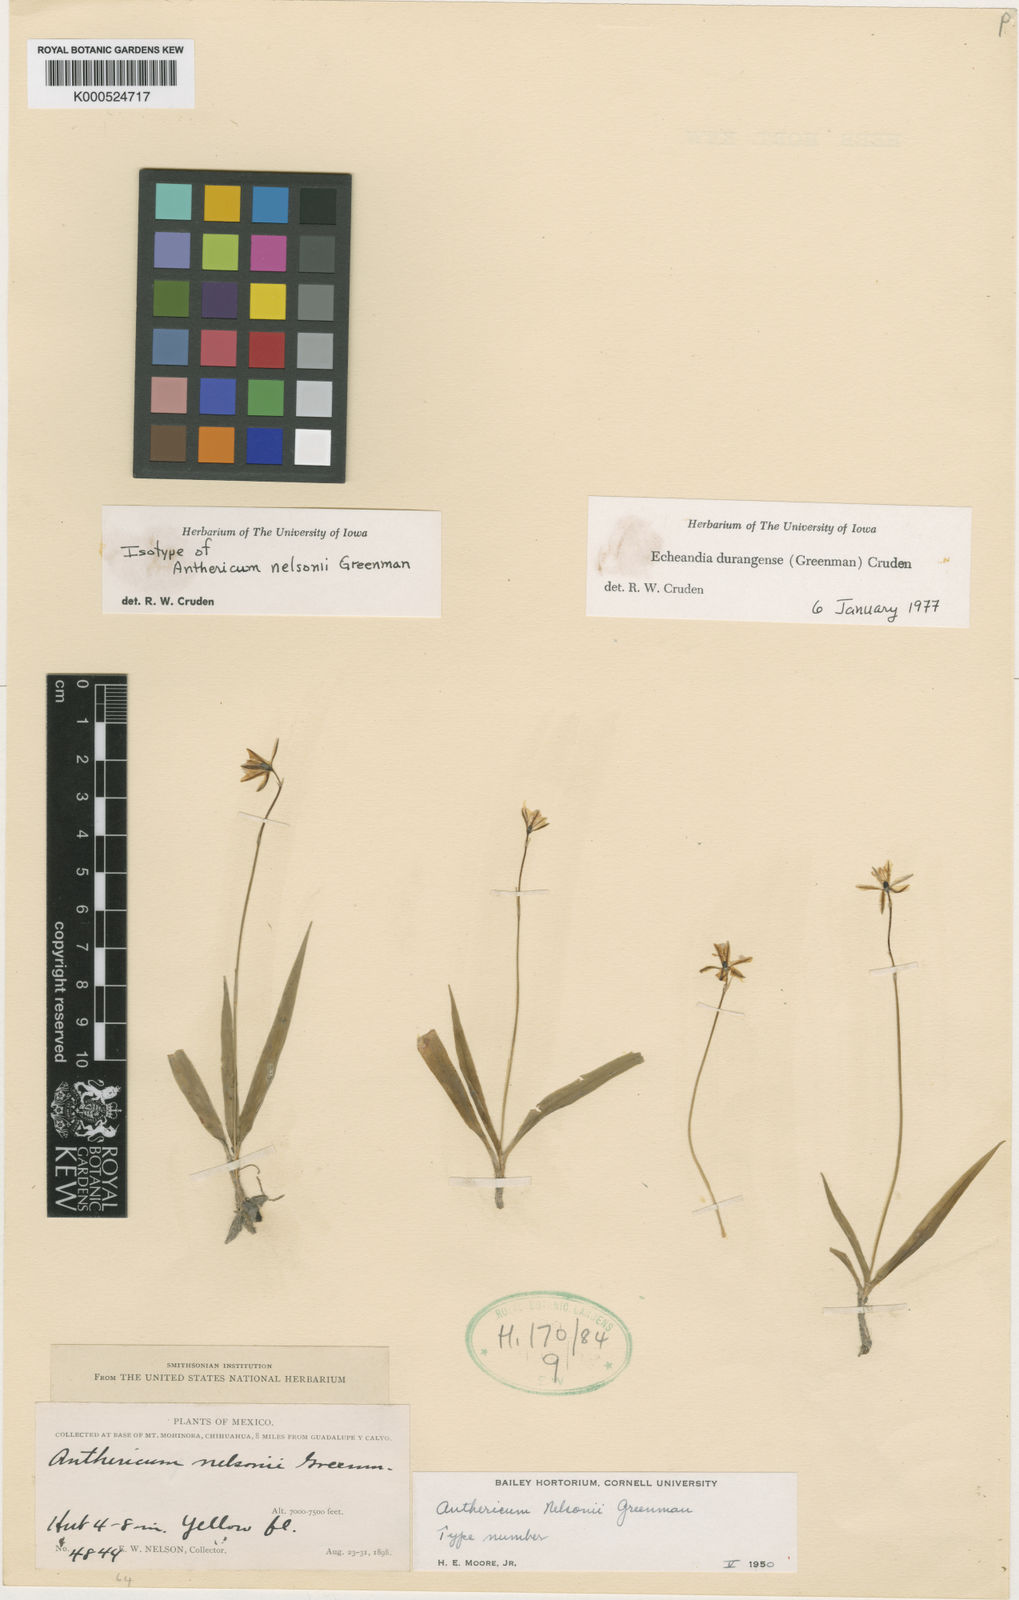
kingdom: Plantae
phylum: Tracheophyta
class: Liliopsida
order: Asparagales
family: Asparagaceae
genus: Echeandia
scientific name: Echeandia flavescens
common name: Amberlily
